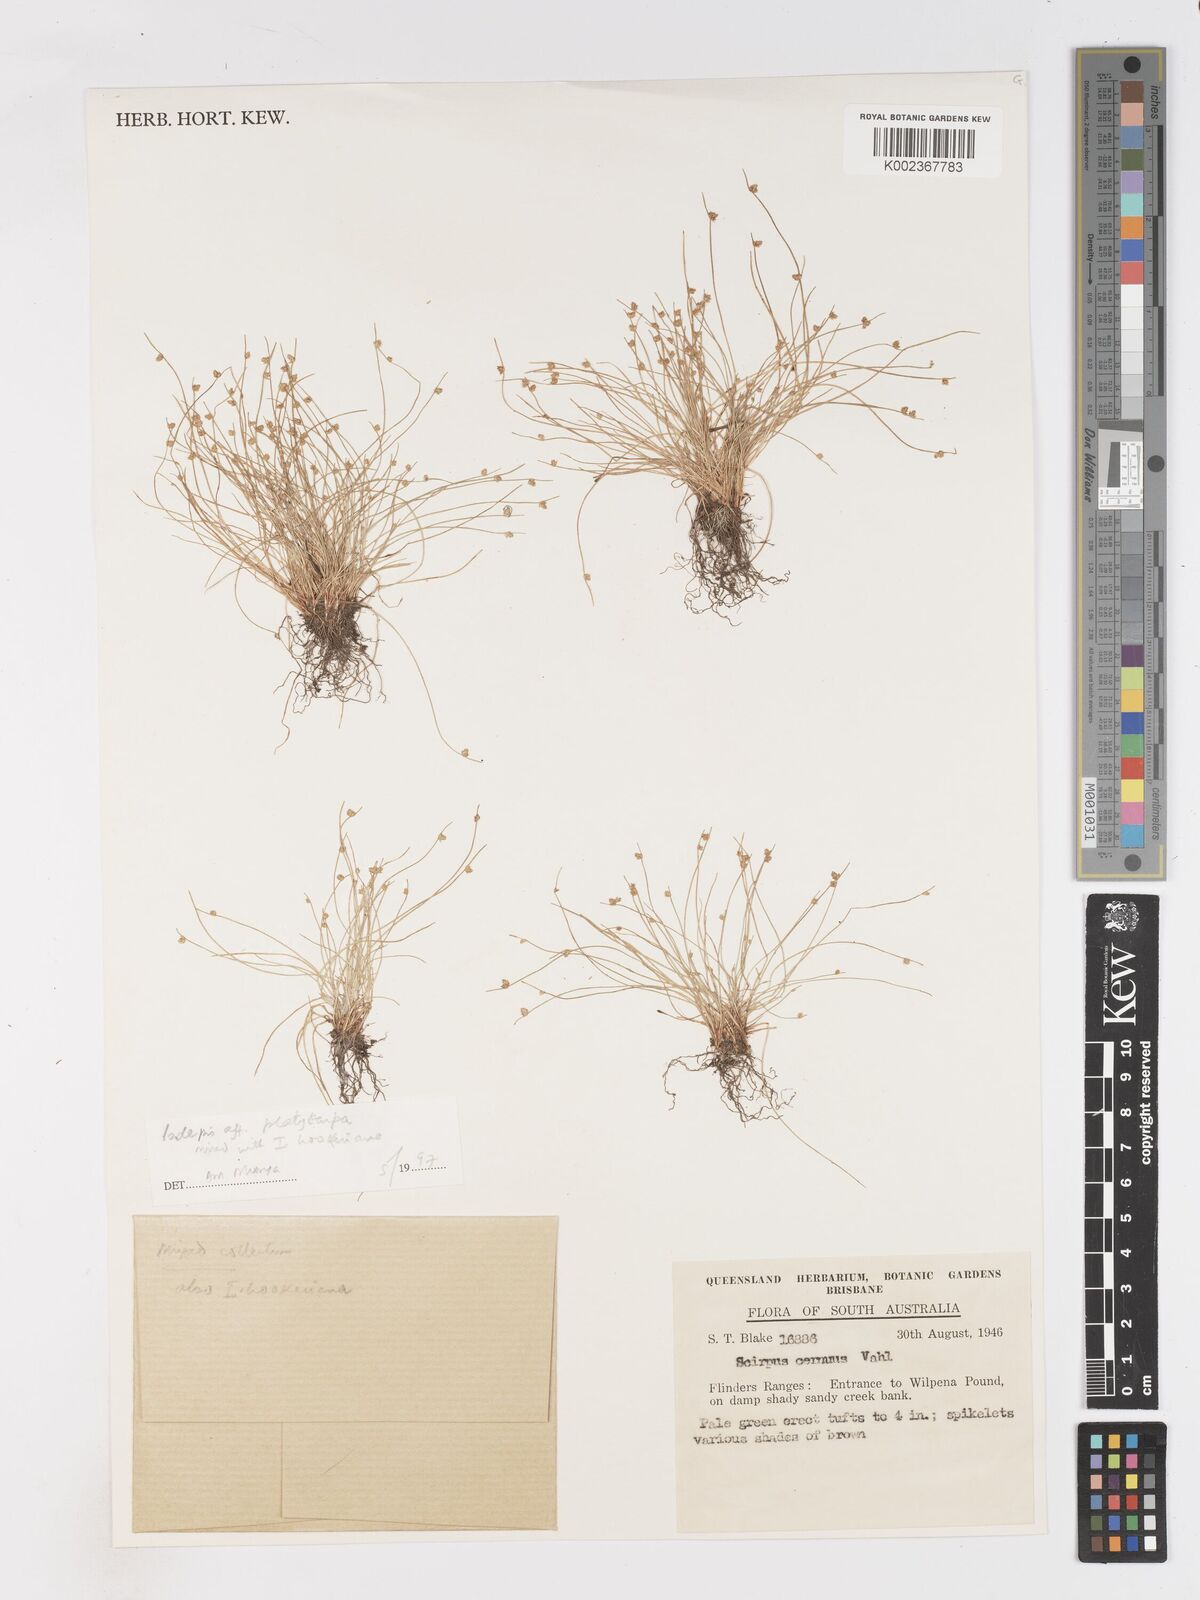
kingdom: Plantae
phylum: Tracheophyta
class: Liliopsida
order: Poales
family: Cyperaceae
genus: Isolepis
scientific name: Isolepis cernua
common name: Slender club-rush
